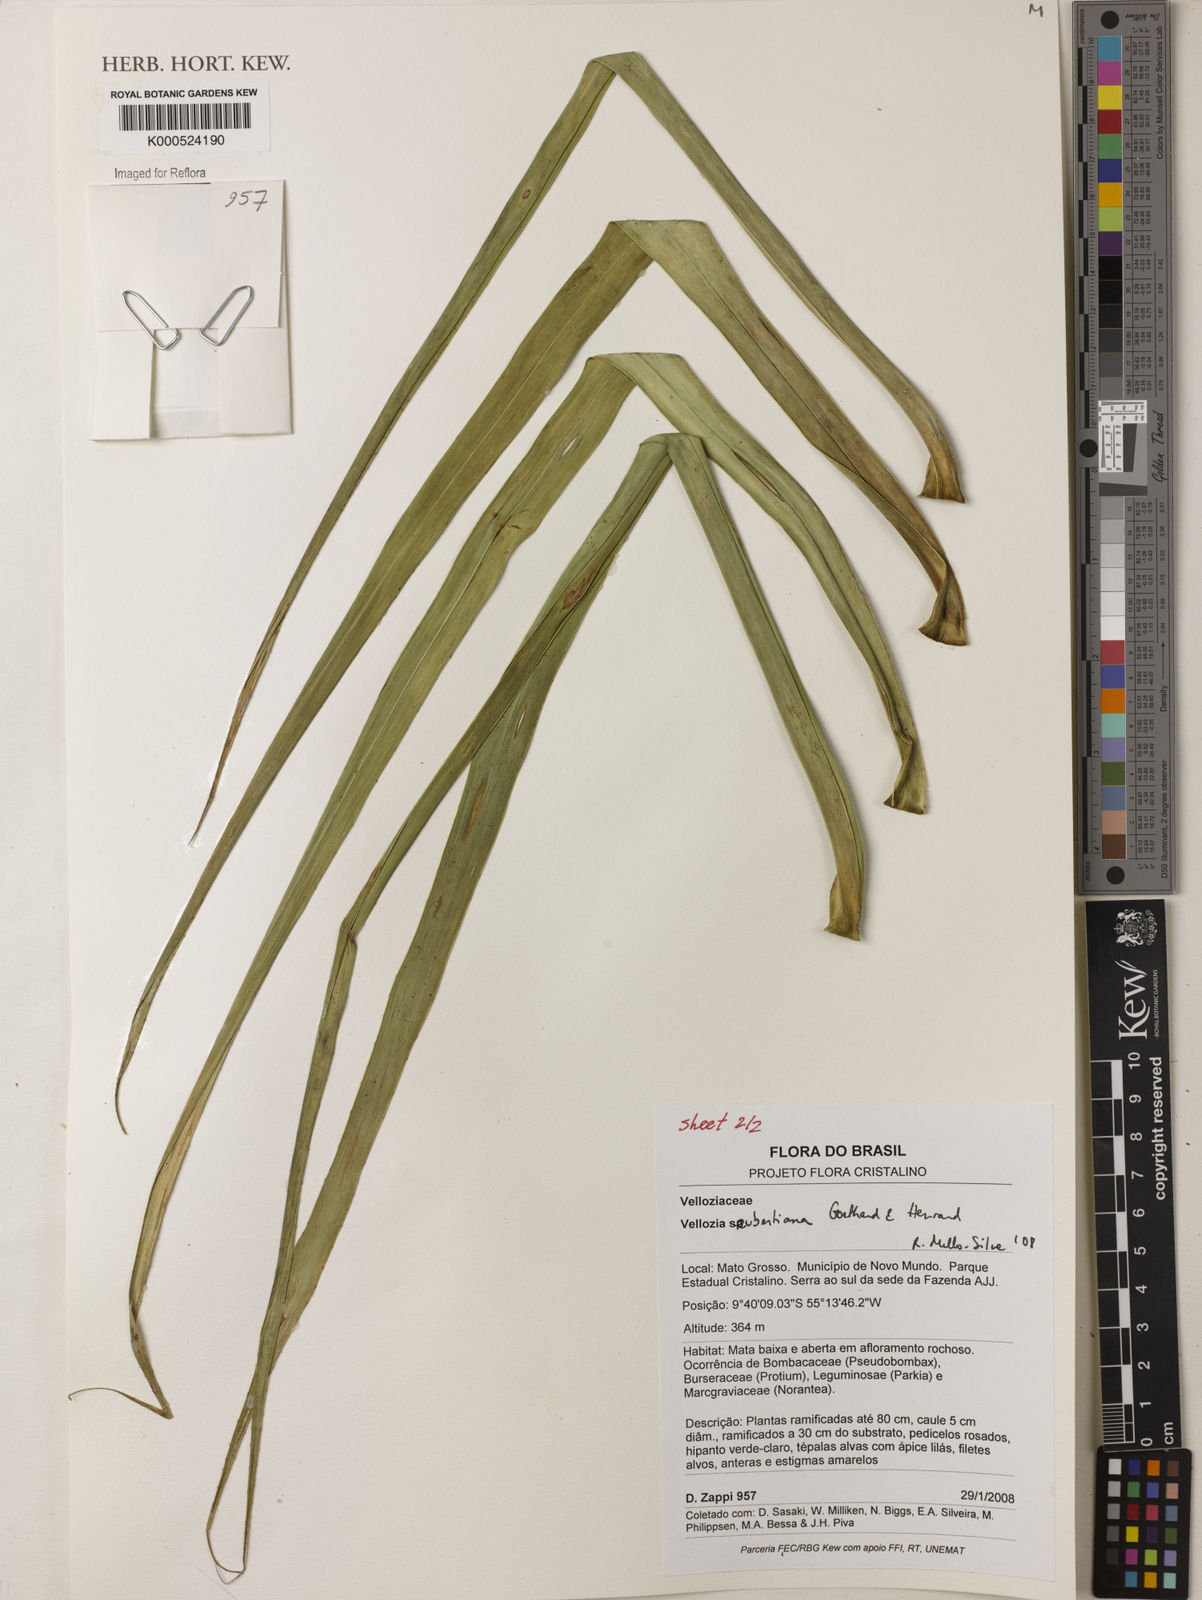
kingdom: Plantae
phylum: Tracheophyta
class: Liliopsida
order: Pandanales
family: Velloziaceae
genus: Vellozia
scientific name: Vellozia seubertiana
